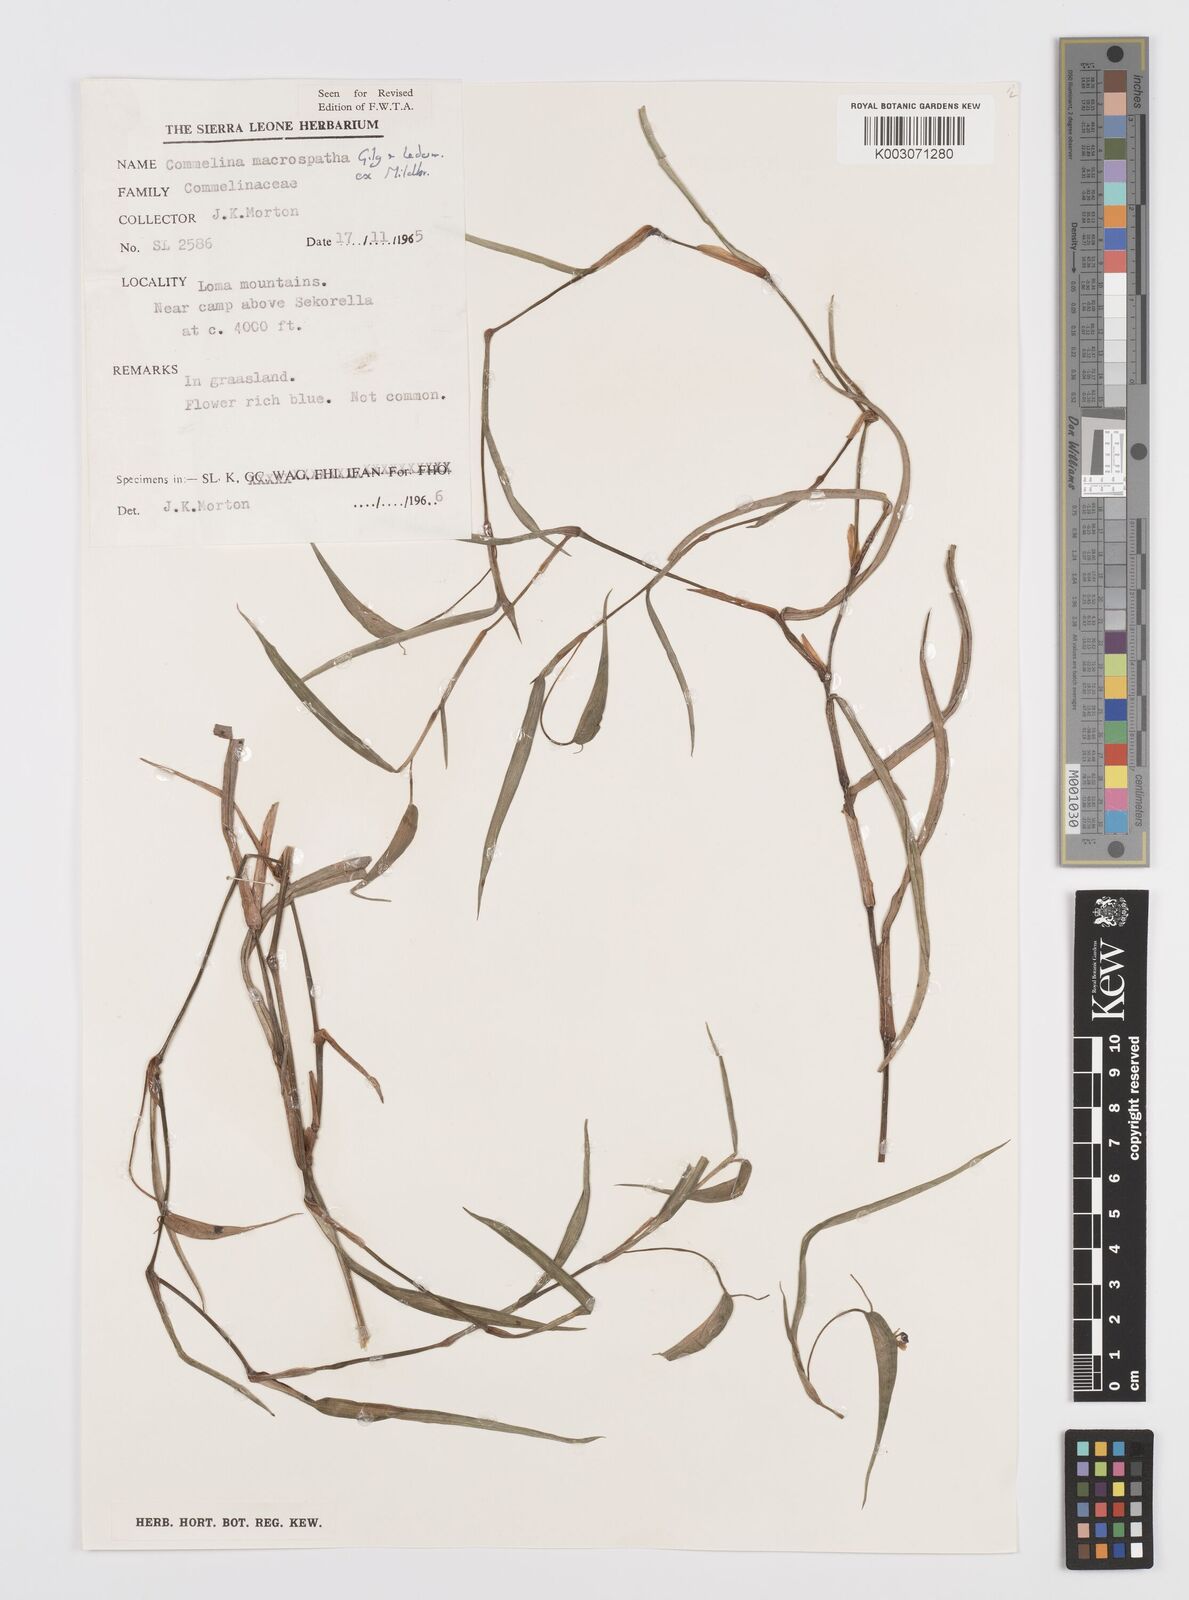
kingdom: Plantae
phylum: Tracheophyta
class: Liliopsida
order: Commelinales
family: Commelinaceae
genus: Commelina
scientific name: Commelina macrospatha
